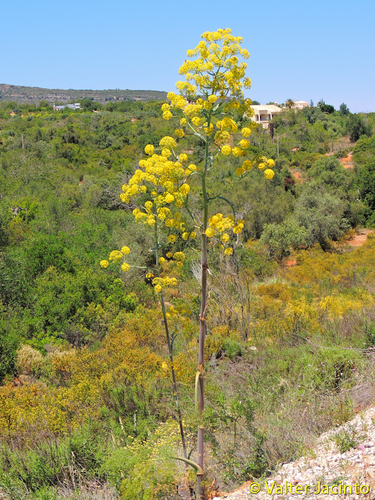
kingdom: Plantae
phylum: Tracheophyta
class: Magnoliopsida
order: Apiales
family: Apiaceae
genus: Ferula
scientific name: Ferula communis
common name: Giant fennel
